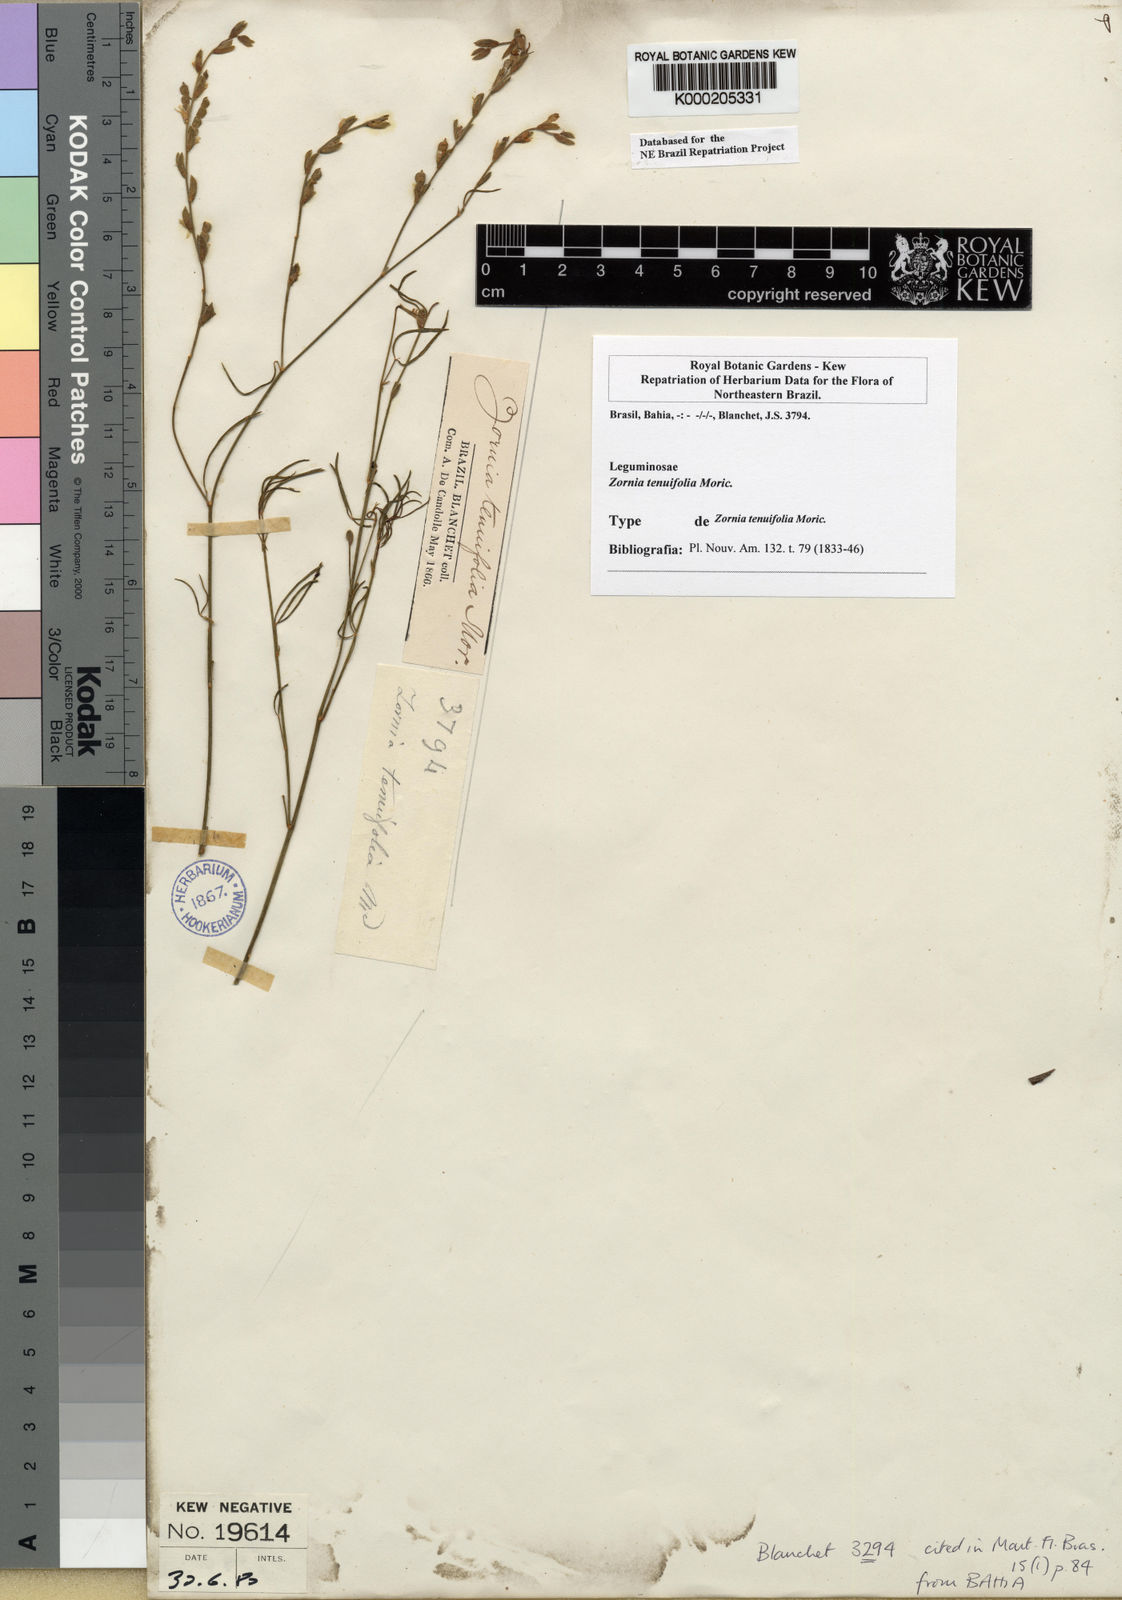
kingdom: Plantae
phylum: Tracheophyta
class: Magnoliopsida
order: Fabales
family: Fabaceae
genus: Zornia
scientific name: Zornia tenuifolia
